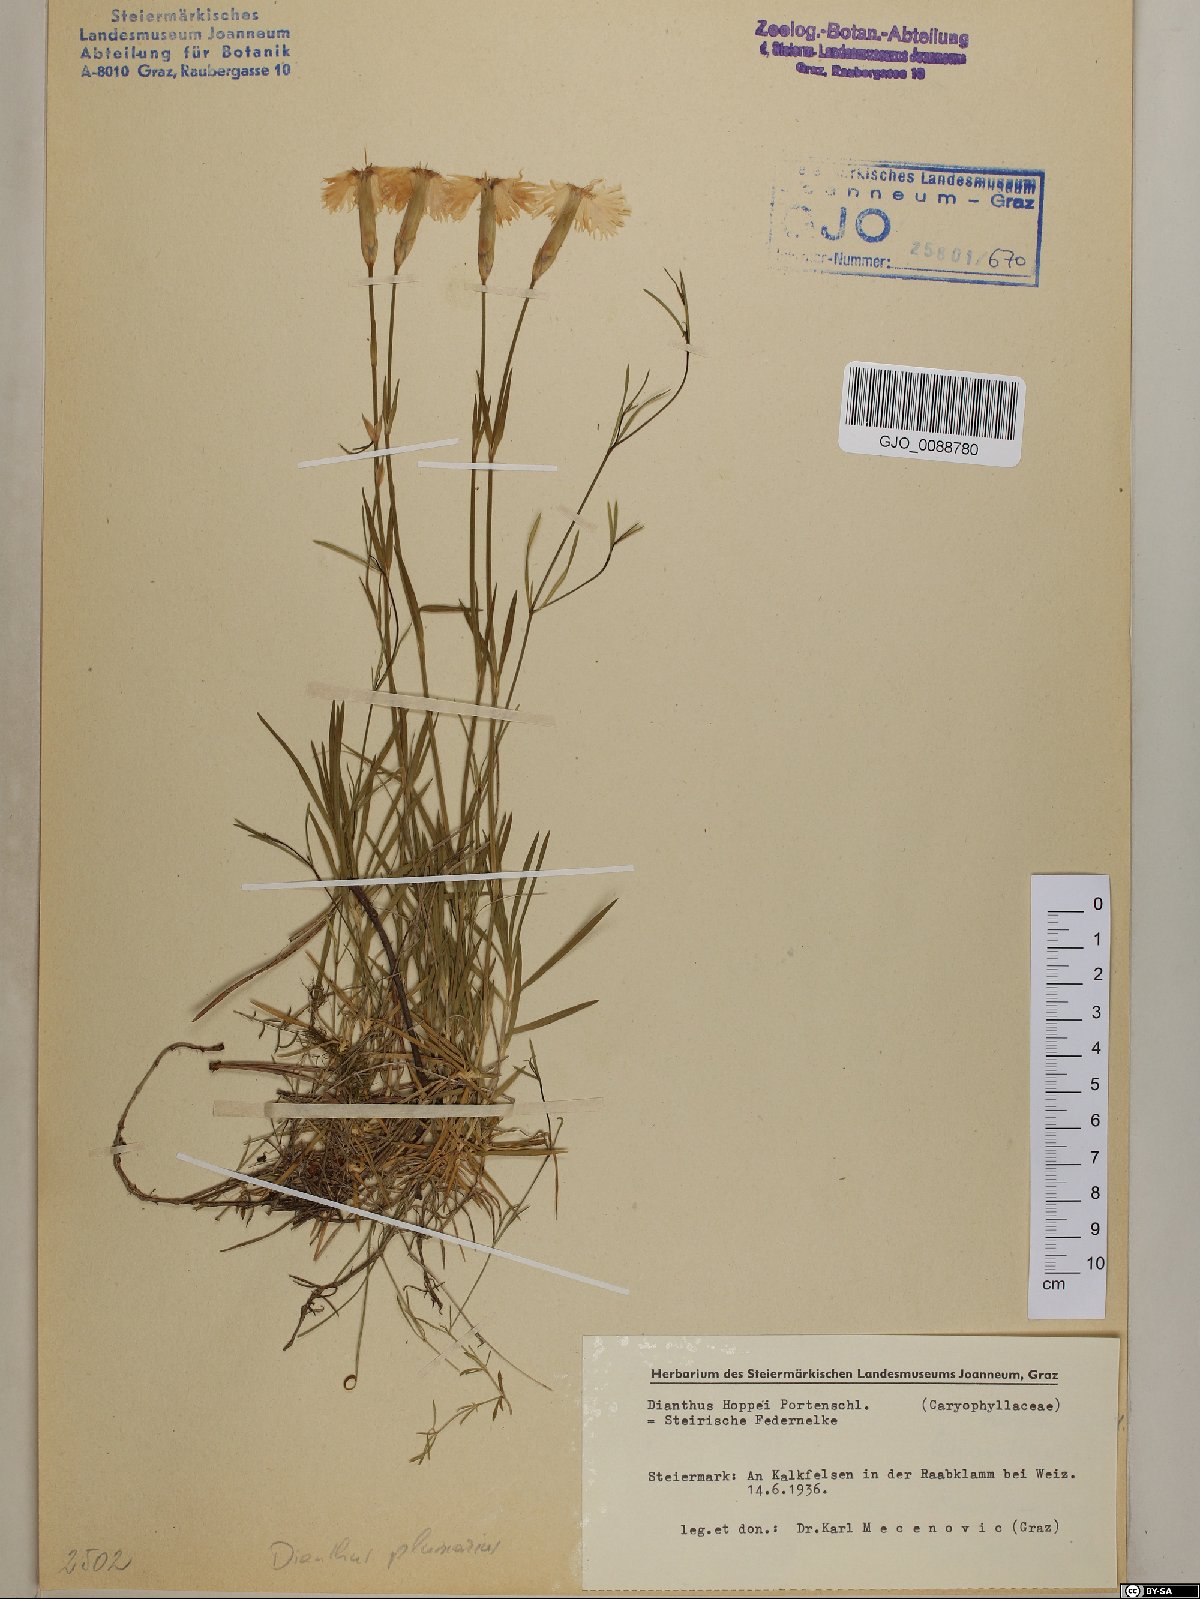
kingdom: Plantae
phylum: Tracheophyta
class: Magnoliopsida
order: Caryophyllales
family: Caryophyllaceae
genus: Dianthus
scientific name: Dianthus plumarius
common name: Pink
